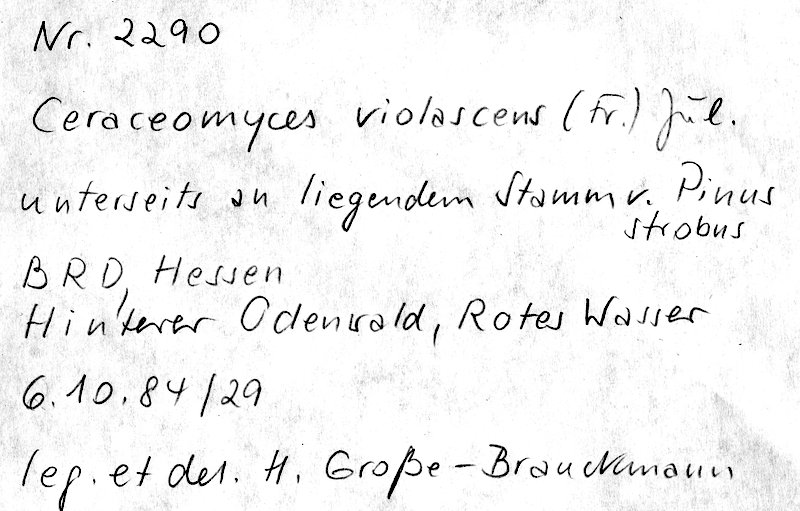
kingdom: Plantae
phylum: Tracheophyta
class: Pinopsida
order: Pinales
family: Pinaceae
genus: Pinus
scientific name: Pinus strobus
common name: Weymouth pine
